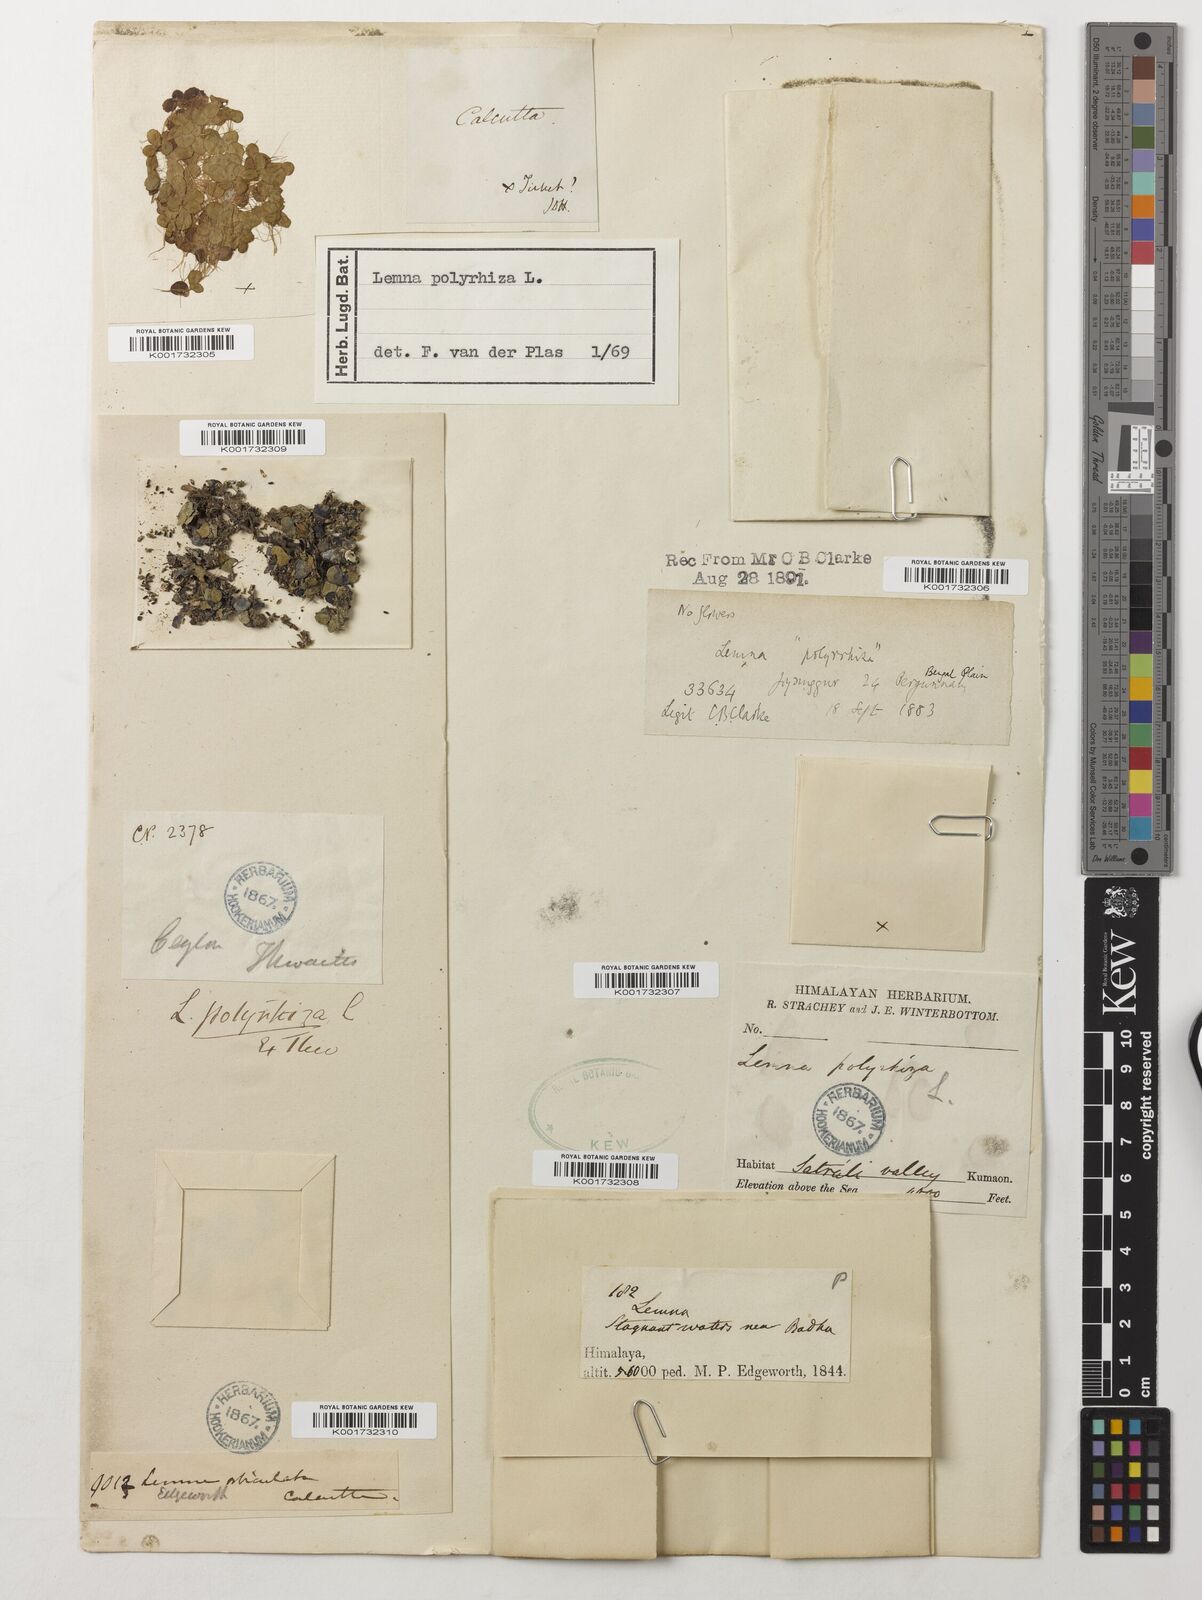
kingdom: Plantae
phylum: Tracheophyta
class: Liliopsida
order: Alismatales
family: Araceae
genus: Spirodela
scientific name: Spirodela polyrhiza
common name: Great duckweed
